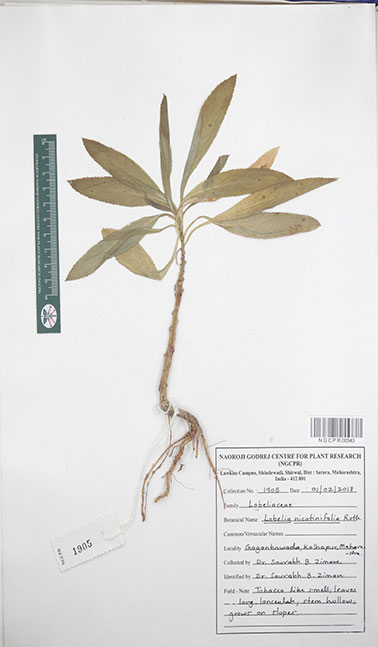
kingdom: Plantae
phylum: Tracheophyta
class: Magnoliopsida
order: Asterales
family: Campanulaceae
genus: Lobelia
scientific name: Lobelia nicotianifolia
